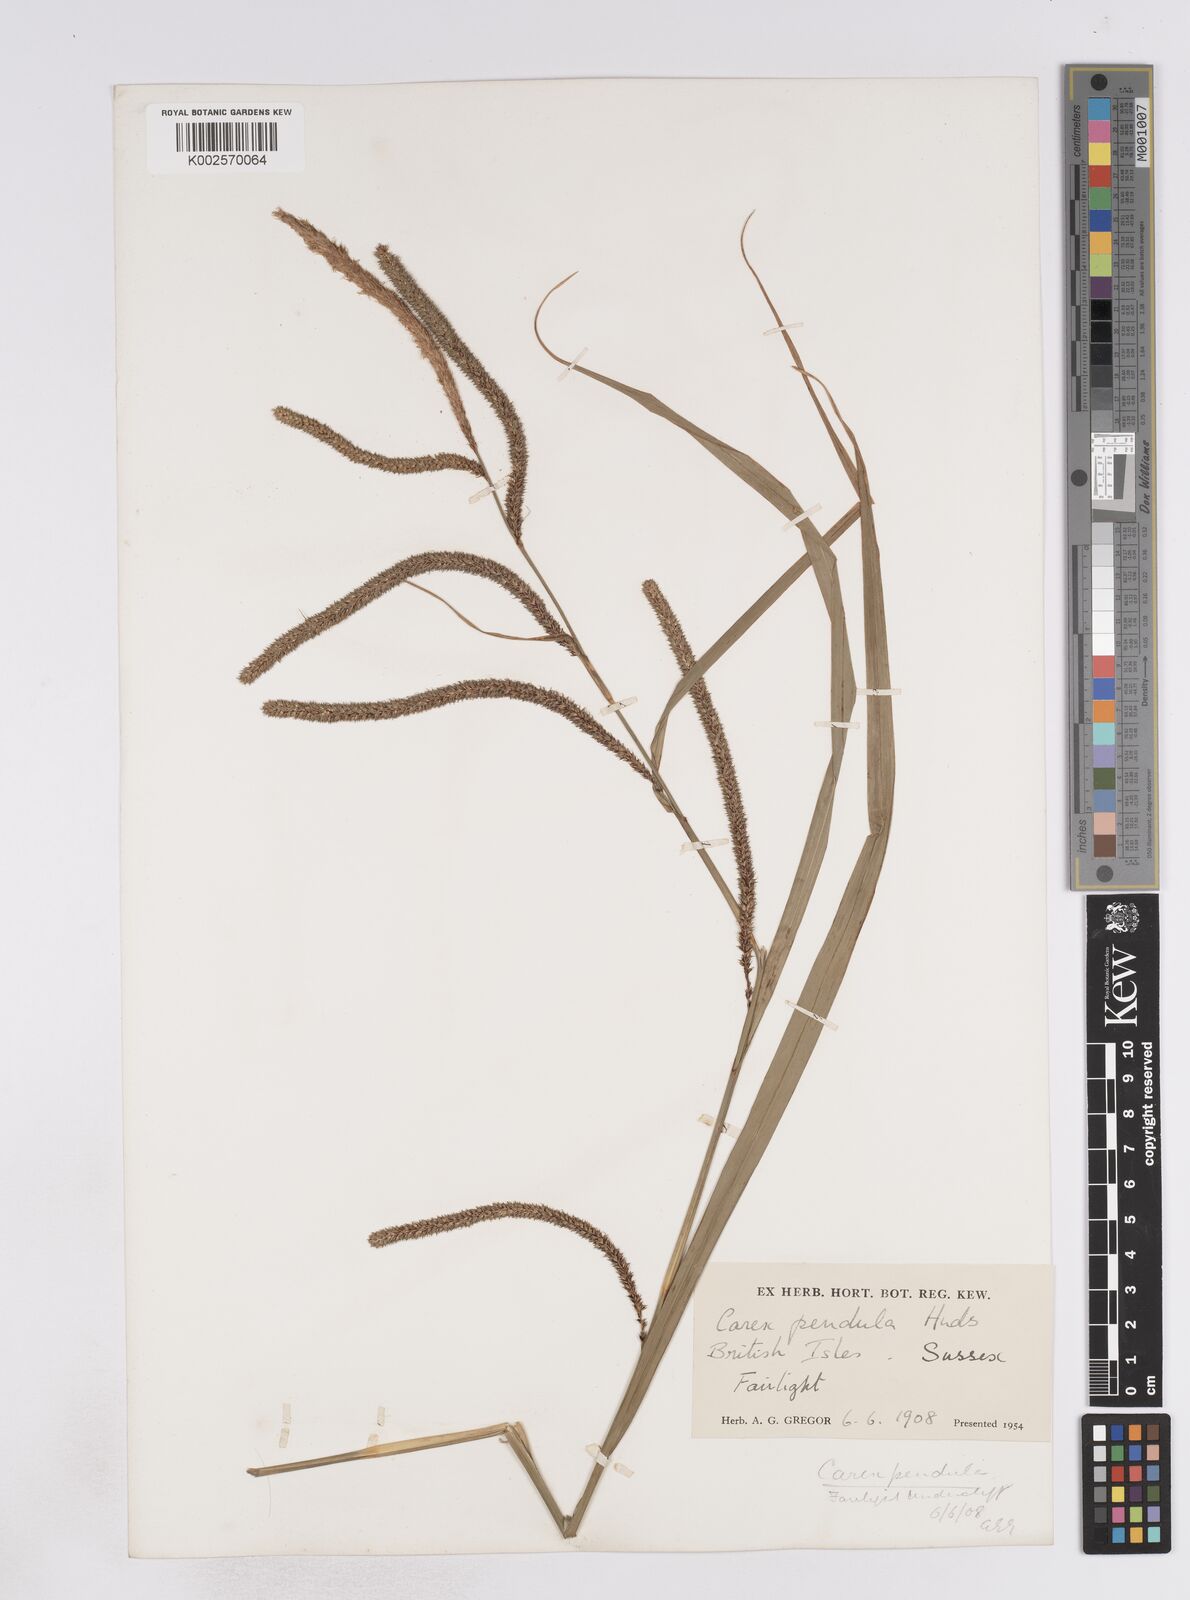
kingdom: Plantae
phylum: Tracheophyta
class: Liliopsida
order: Poales
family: Cyperaceae
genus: Carex
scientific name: Carex pendula
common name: Pendulous sedge
